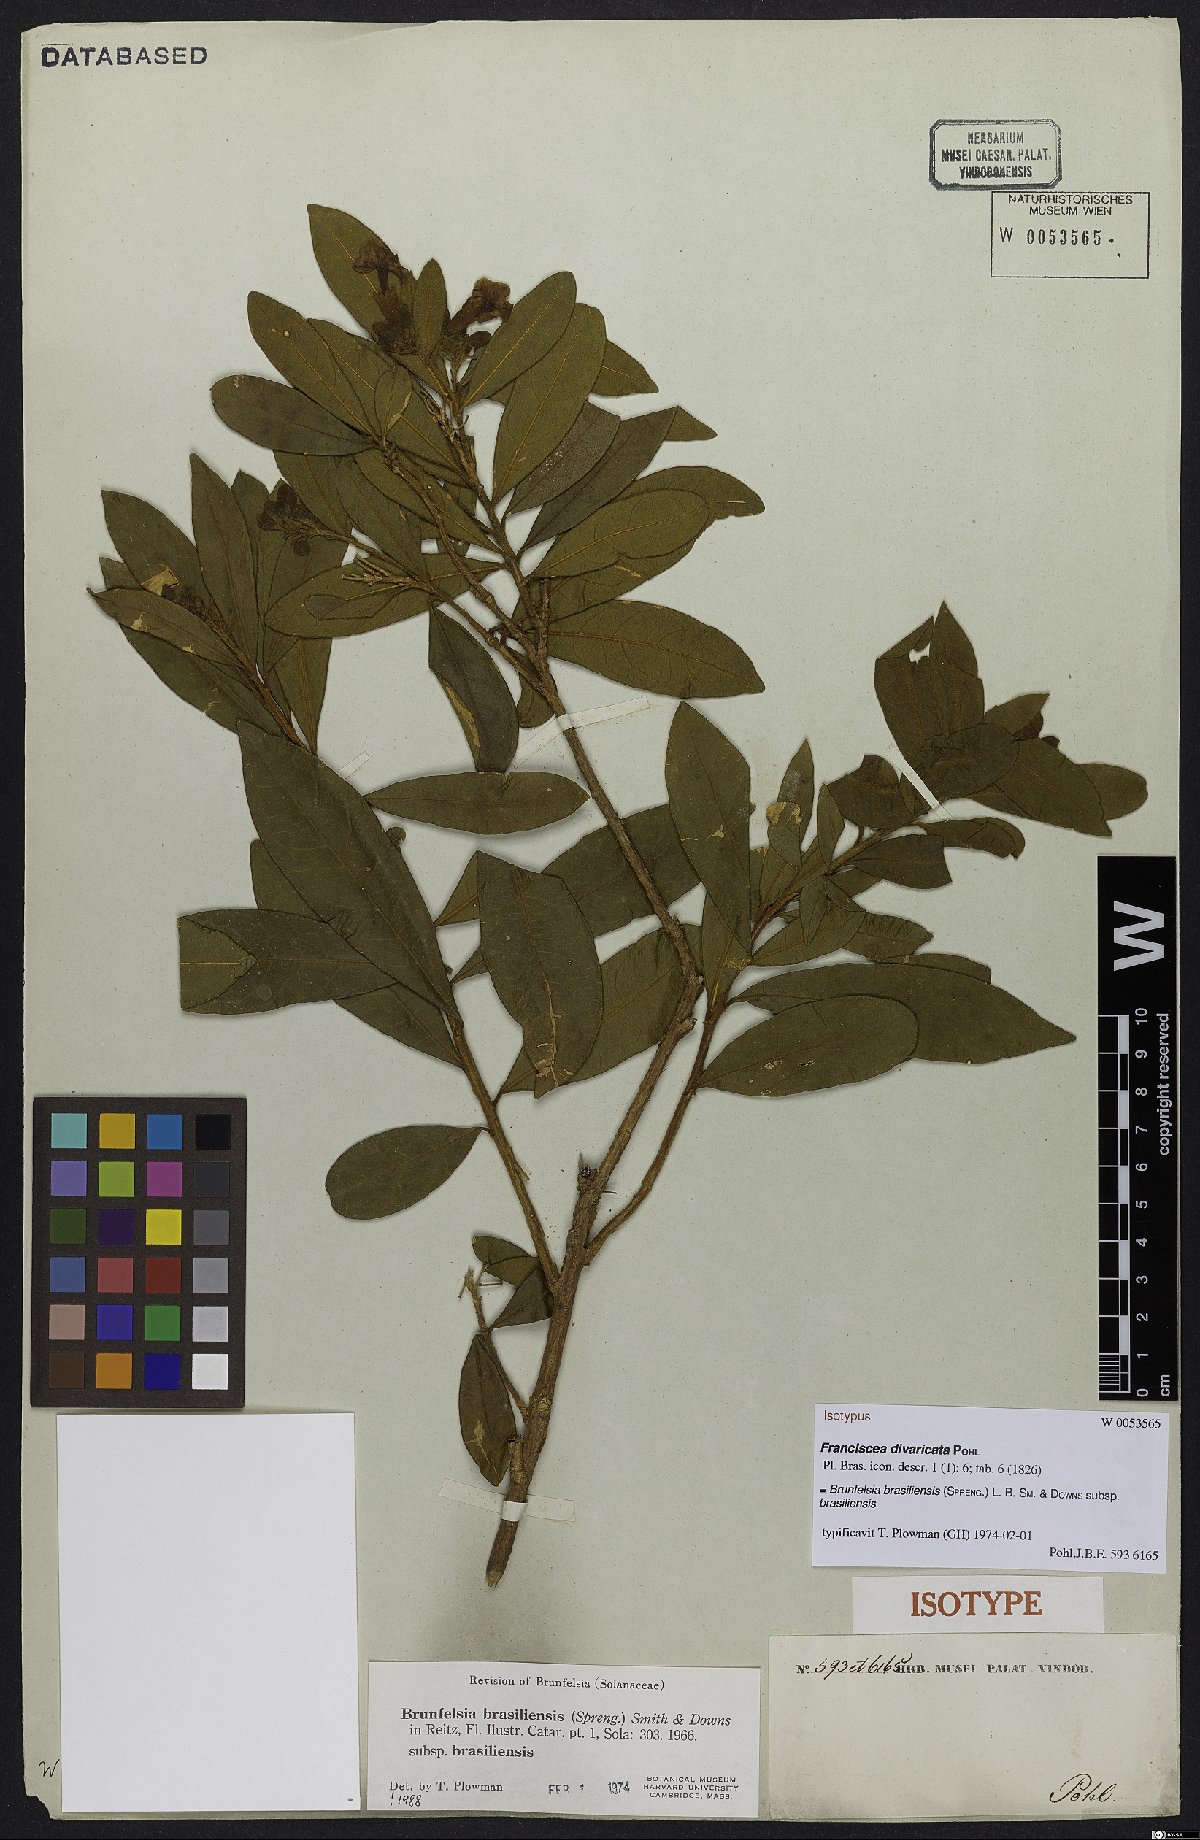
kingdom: Plantae
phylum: Tracheophyta
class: Magnoliopsida
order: Solanales
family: Solanaceae
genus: Brunfelsia
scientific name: Brunfelsia brasiliensis
